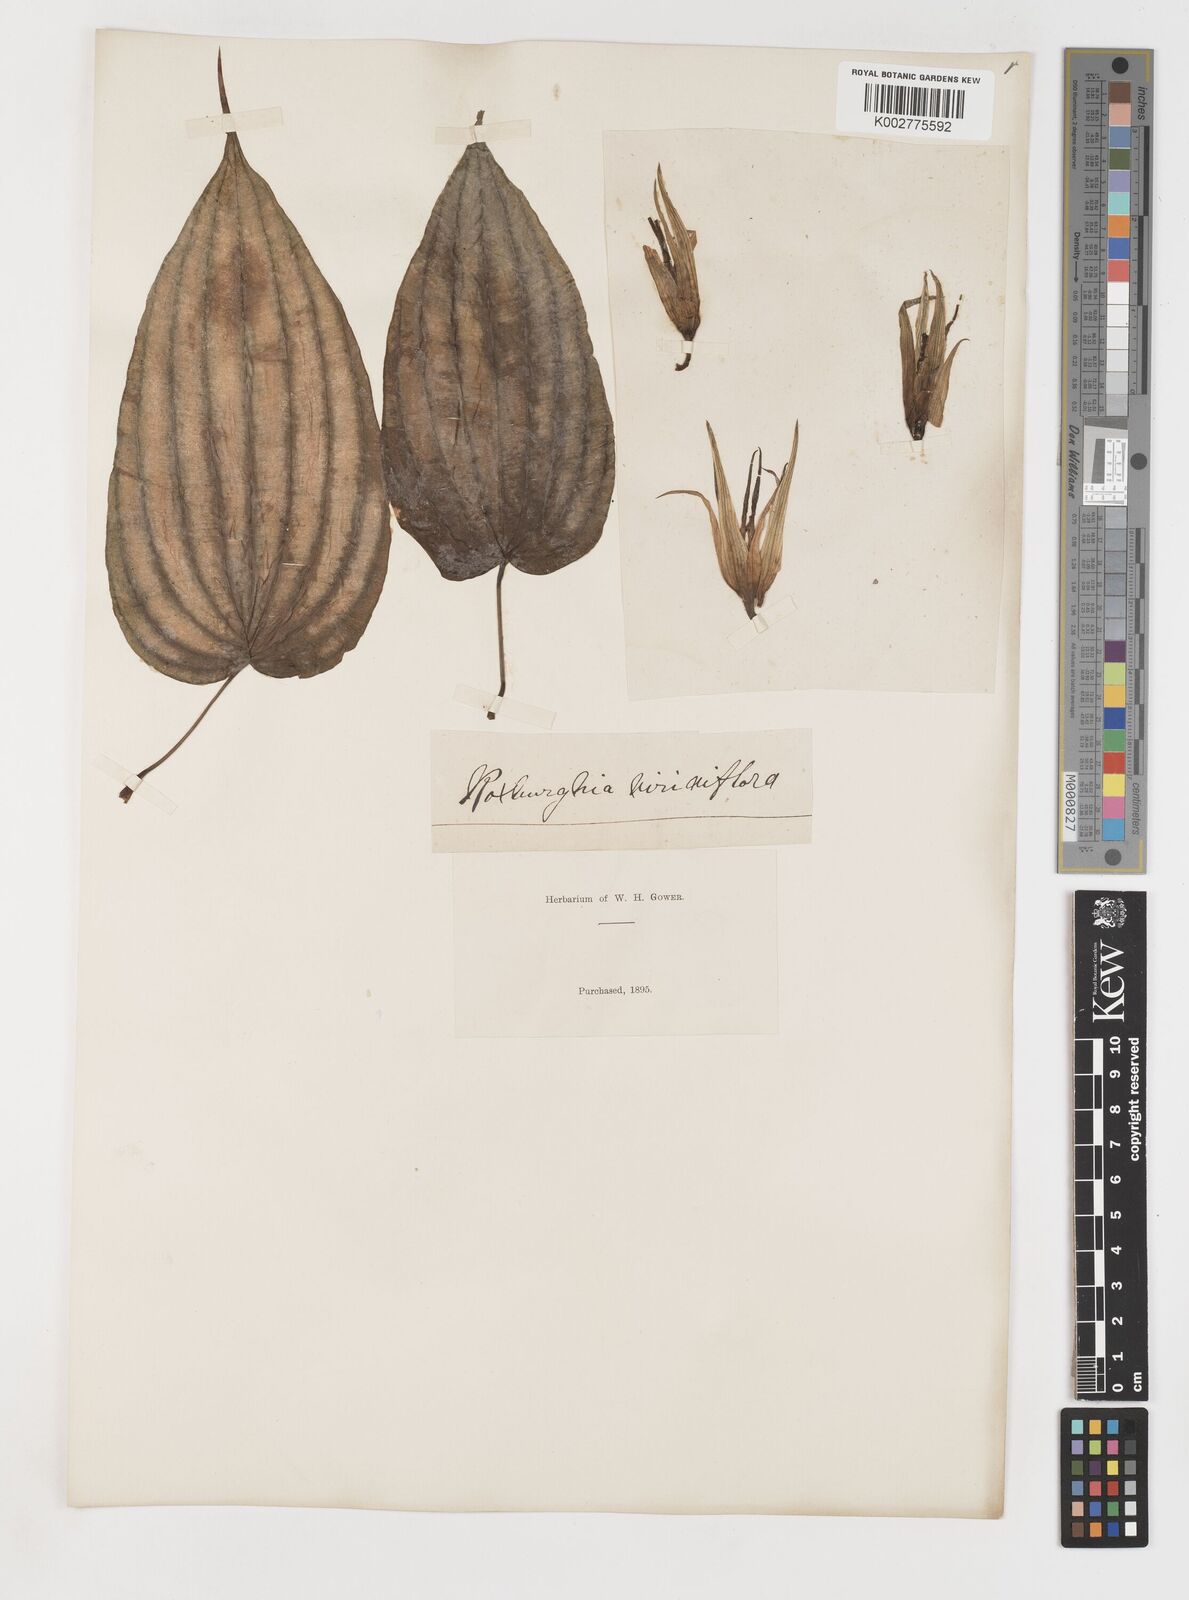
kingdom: Plantae
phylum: Tracheophyta
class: Liliopsida
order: Pandanales
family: Stemonaceae
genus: Stemona
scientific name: Stemona tuberosa
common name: Stemona
